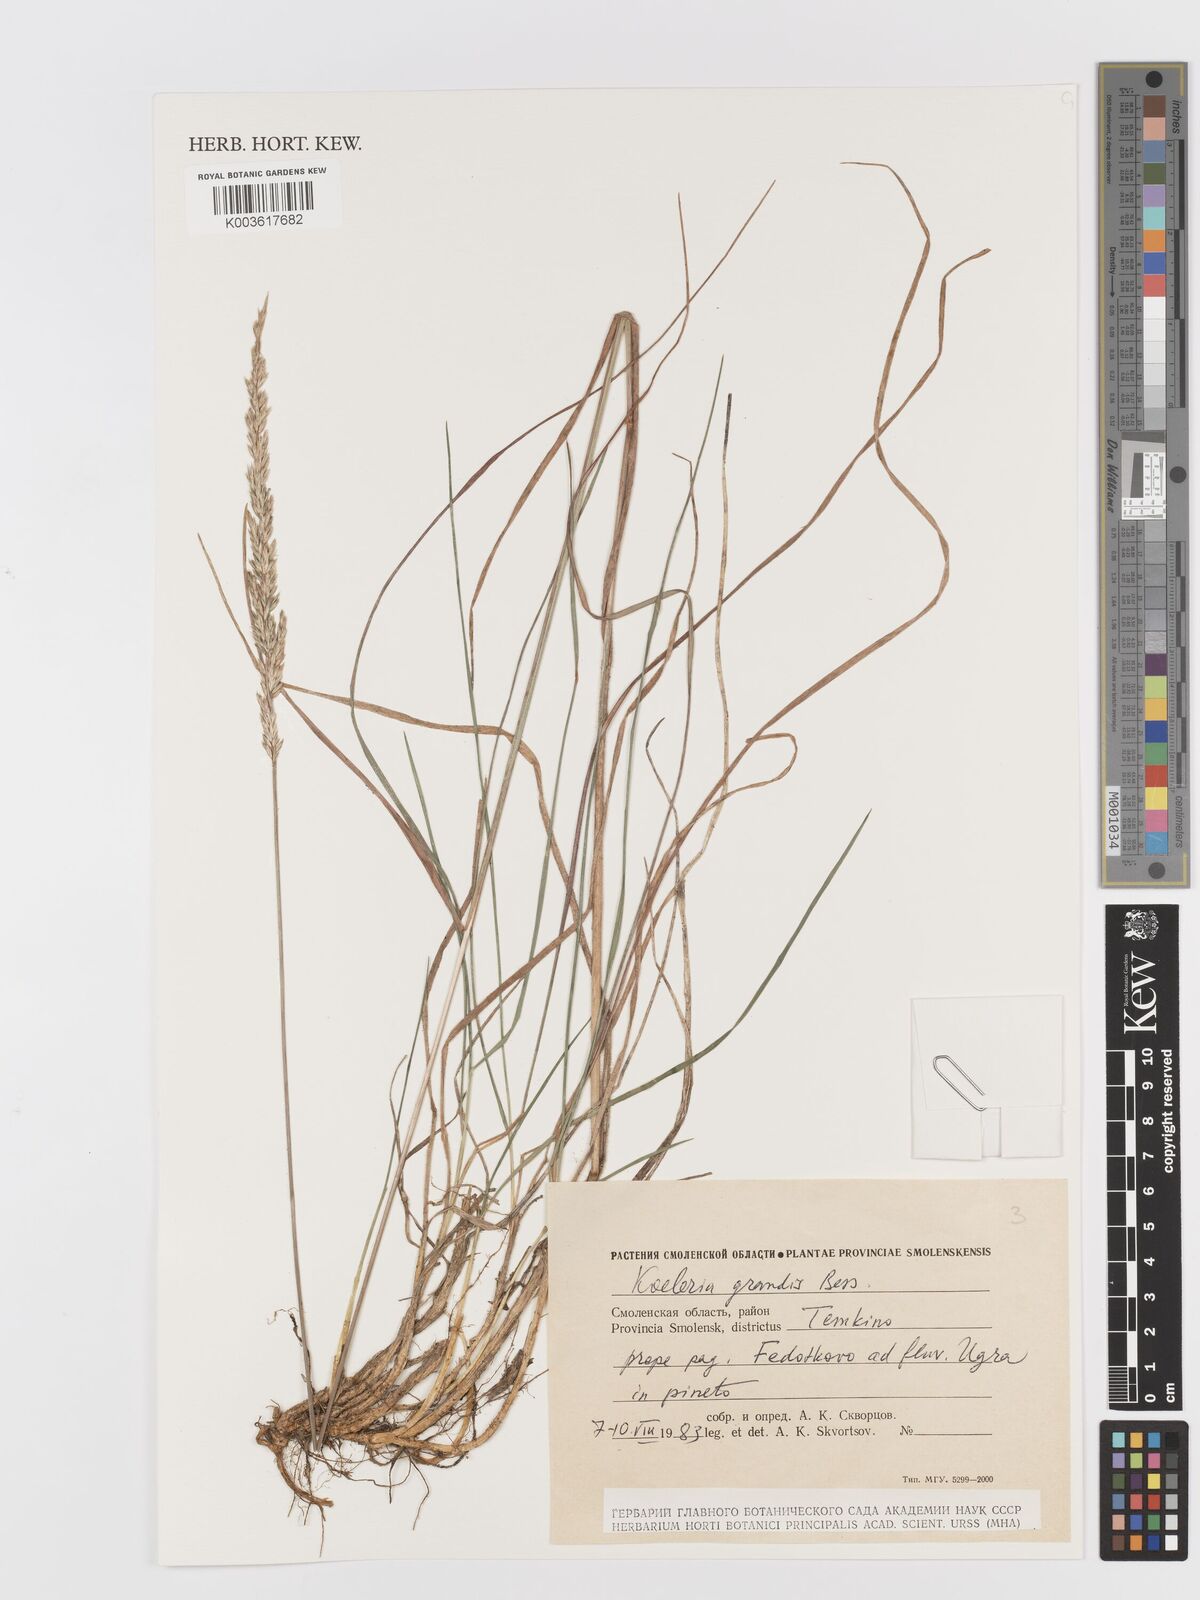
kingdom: Plantae
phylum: Tracheophyta
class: Liliopsida
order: Poales
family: Poaceae
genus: Koeleria
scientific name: Koeleria pyramidata
